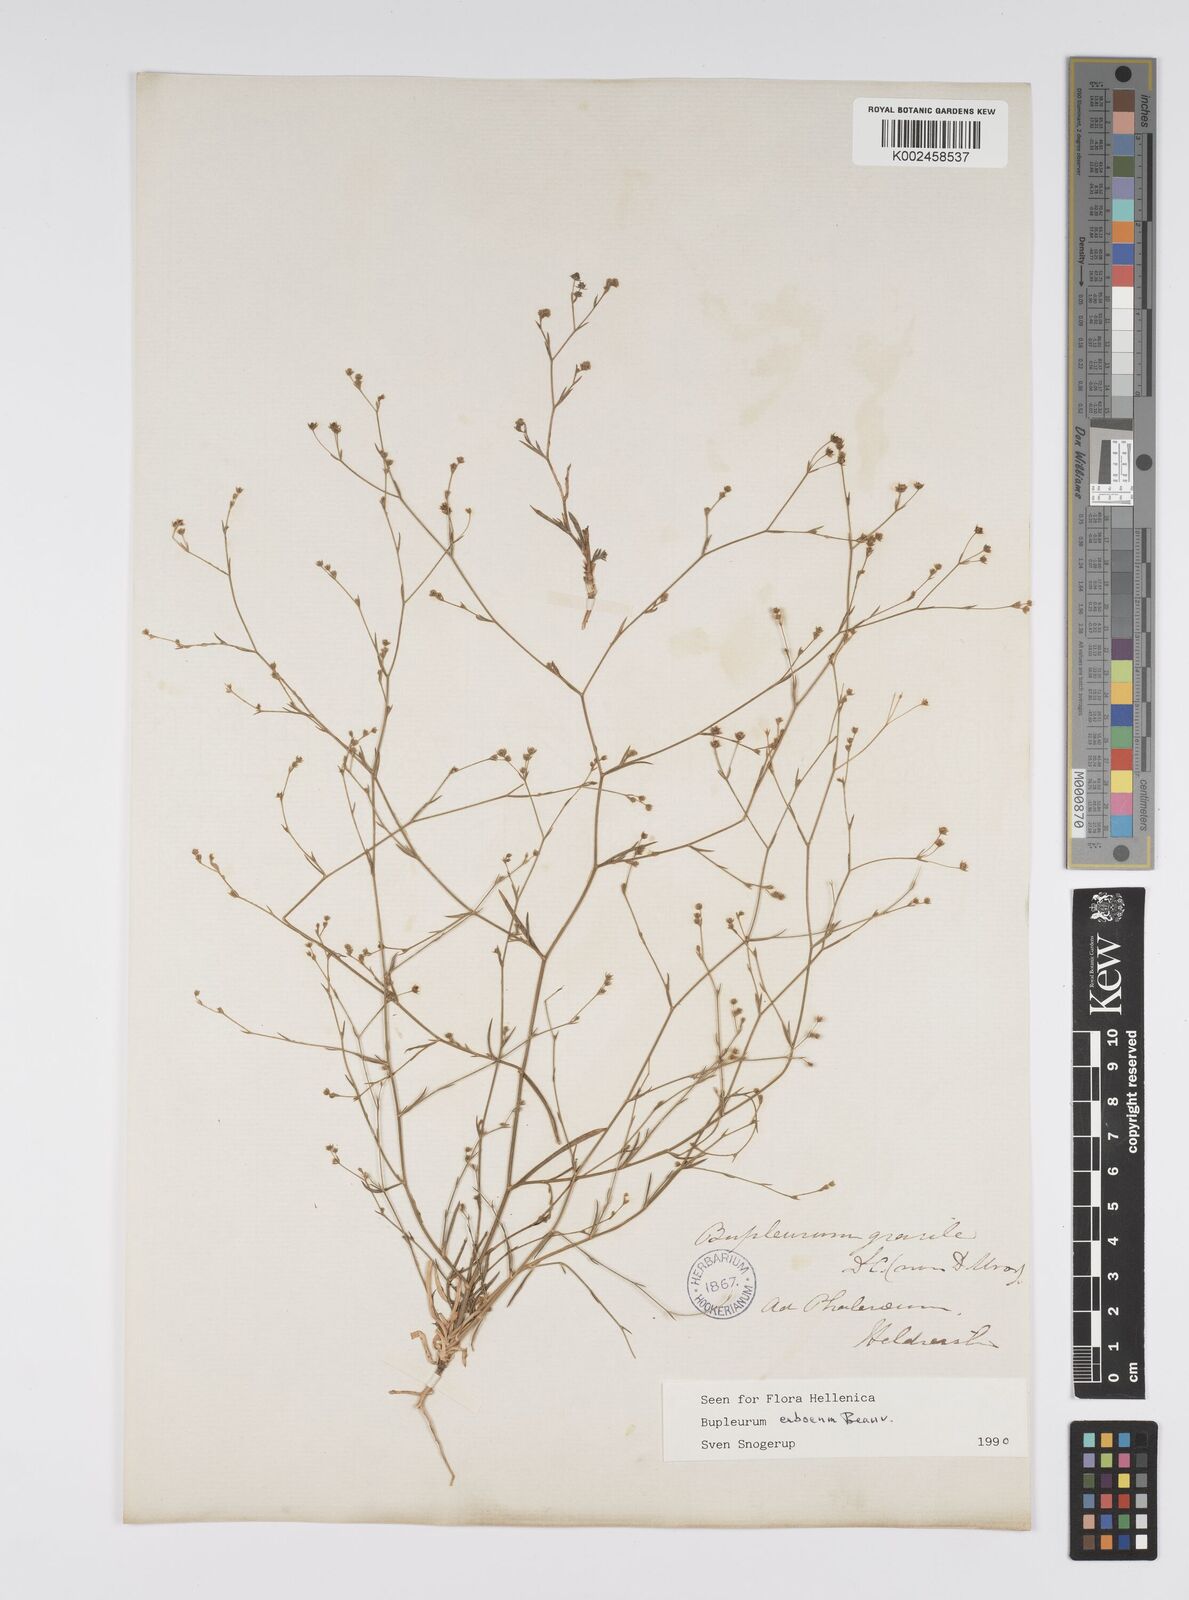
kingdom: Plantae
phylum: Tracheophyta
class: Magnoliopsida
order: Apiales
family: Apiaceae
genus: Bupleurum
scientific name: Bupleurum tenuissimum
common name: Slender hare's-ear
